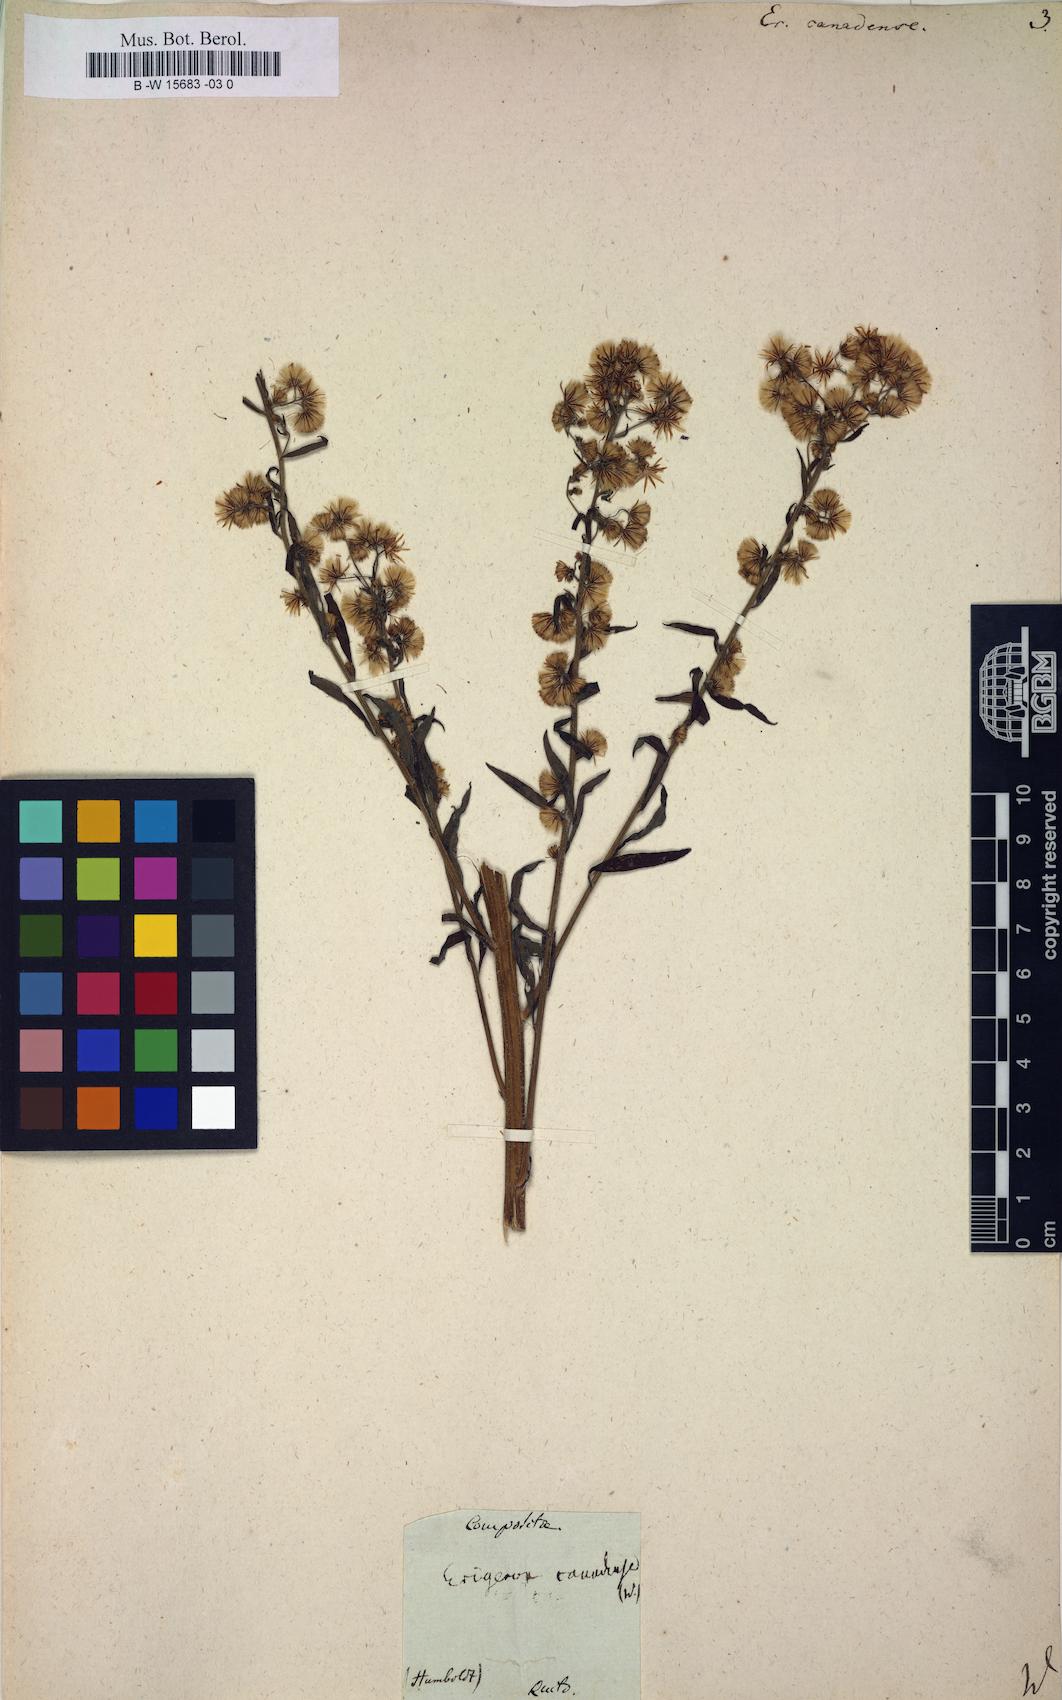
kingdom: Plantae
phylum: Tracheophyta
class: Magnoliopsida
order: Asterales
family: Asteraceae
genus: Erigeron
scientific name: Erigeron canadensis
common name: Canadian fleabane
